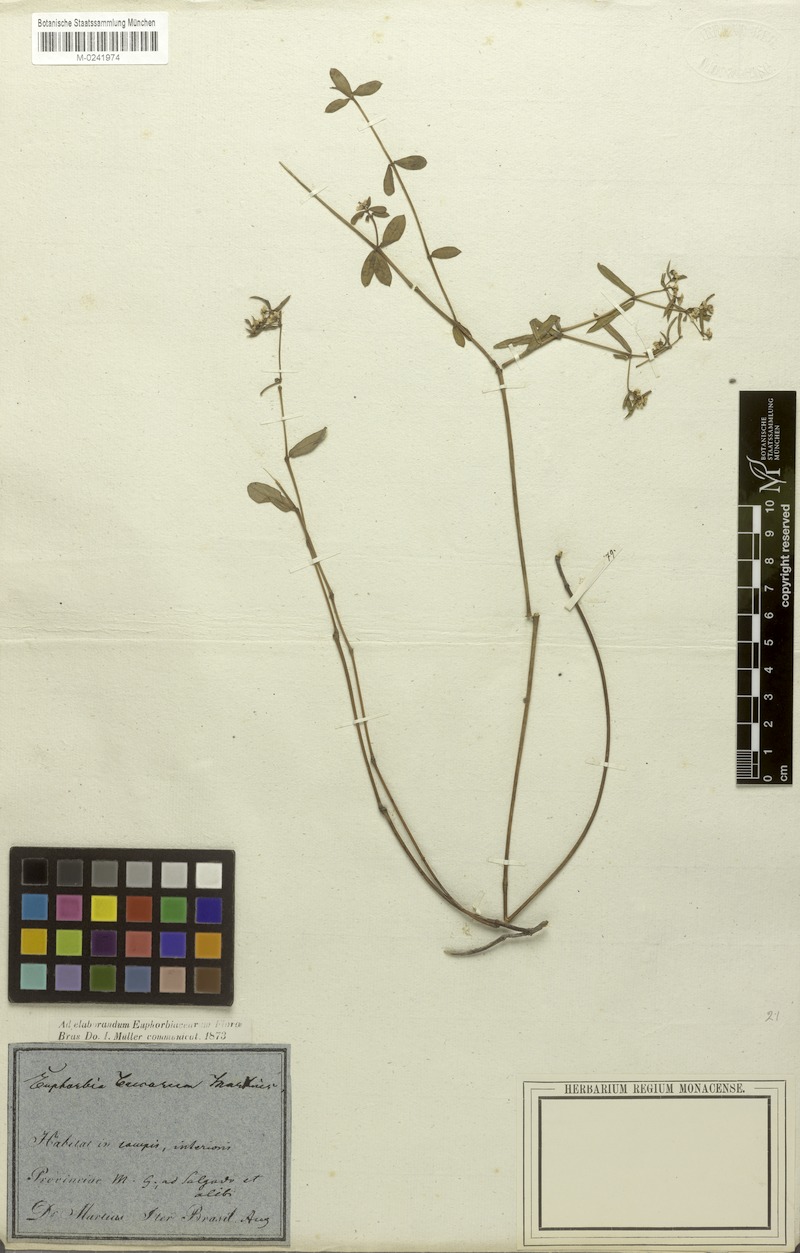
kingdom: Plantae
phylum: Tracheophyta
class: Magnoliopsida
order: Malpighiales
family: Euphorbiaceae
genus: Euphorbia
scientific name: Euphorbia potentilloides
